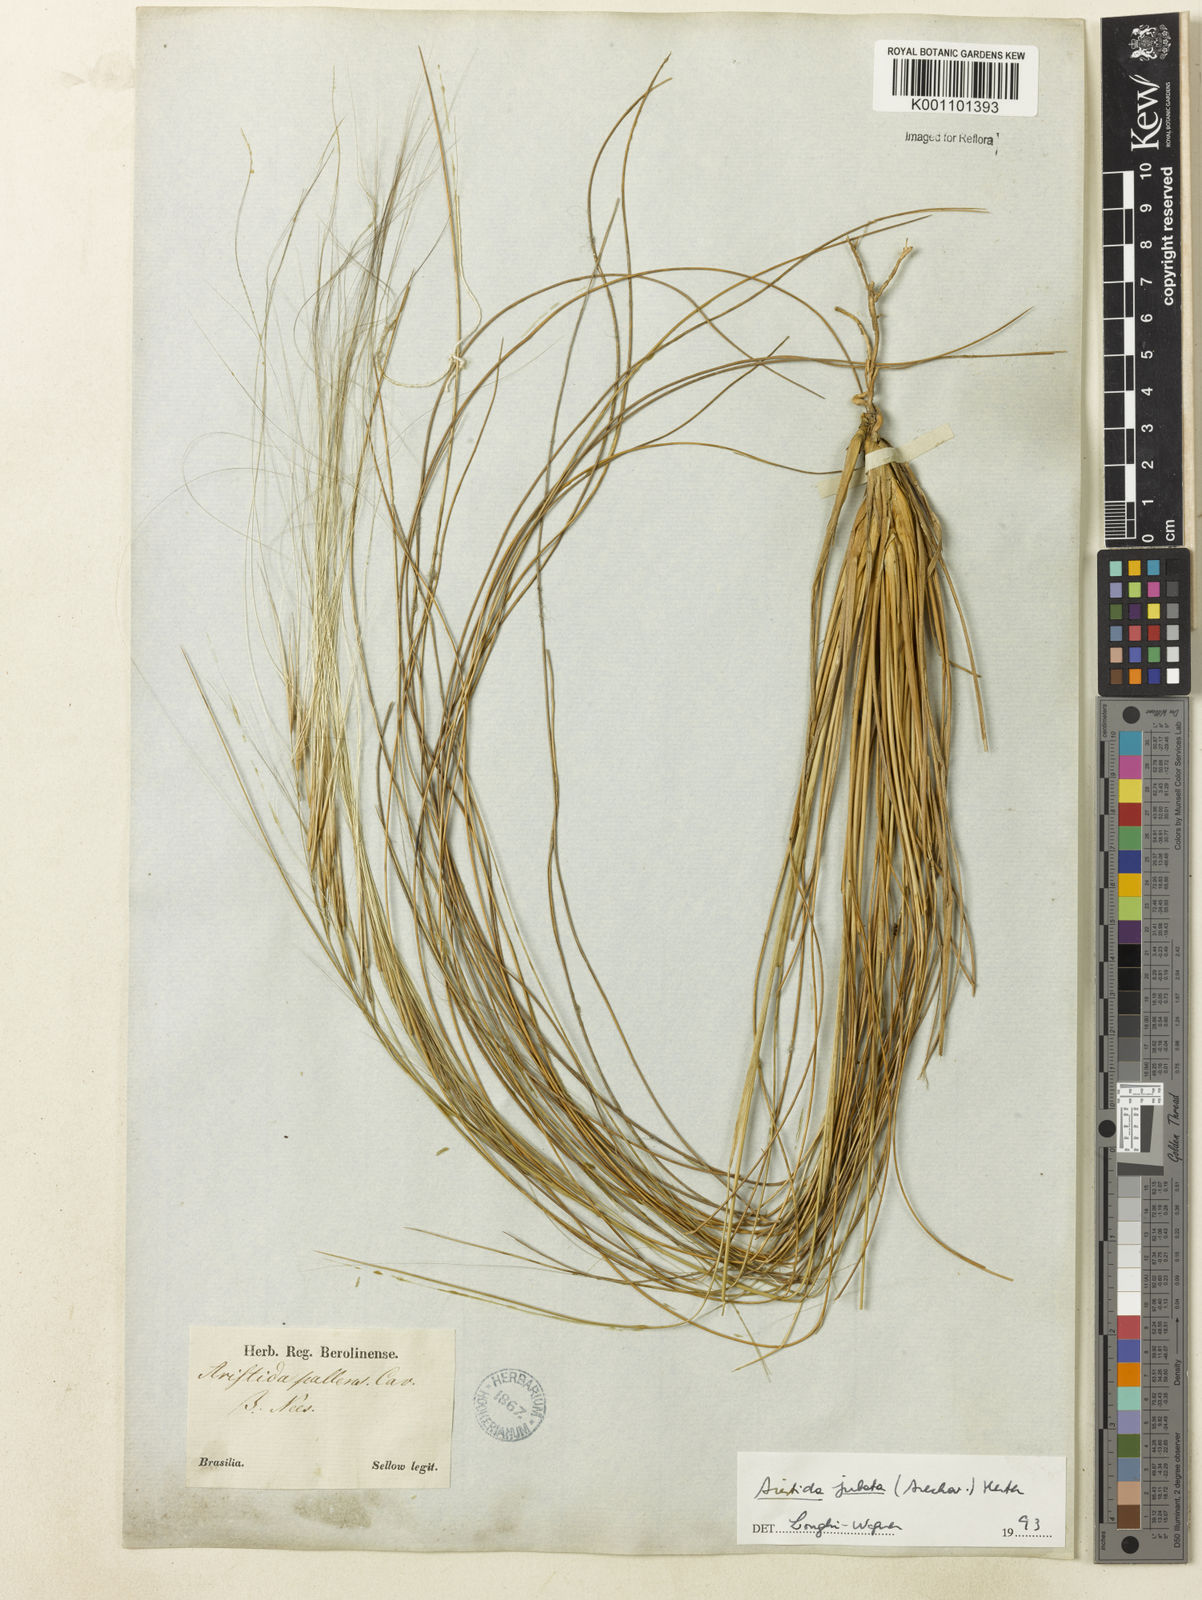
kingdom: Plantae
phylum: Tracheophyta
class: Liliopsida
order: Poales
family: Poaceae
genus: Aristida
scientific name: Aristida jubata
